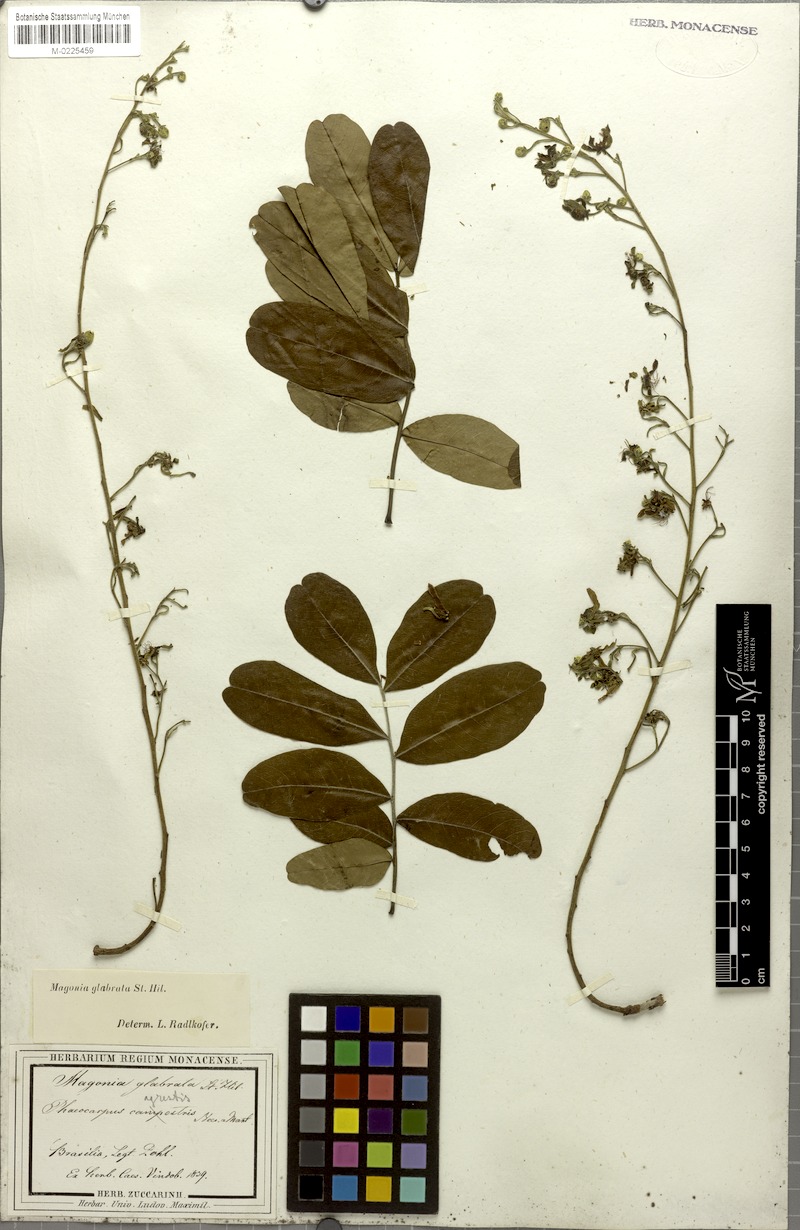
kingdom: Plantae
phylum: Tracheophyta
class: Magnoliopsida
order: Sapindales
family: Sapindaceae
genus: Magonia
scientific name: Magonia pubescens
